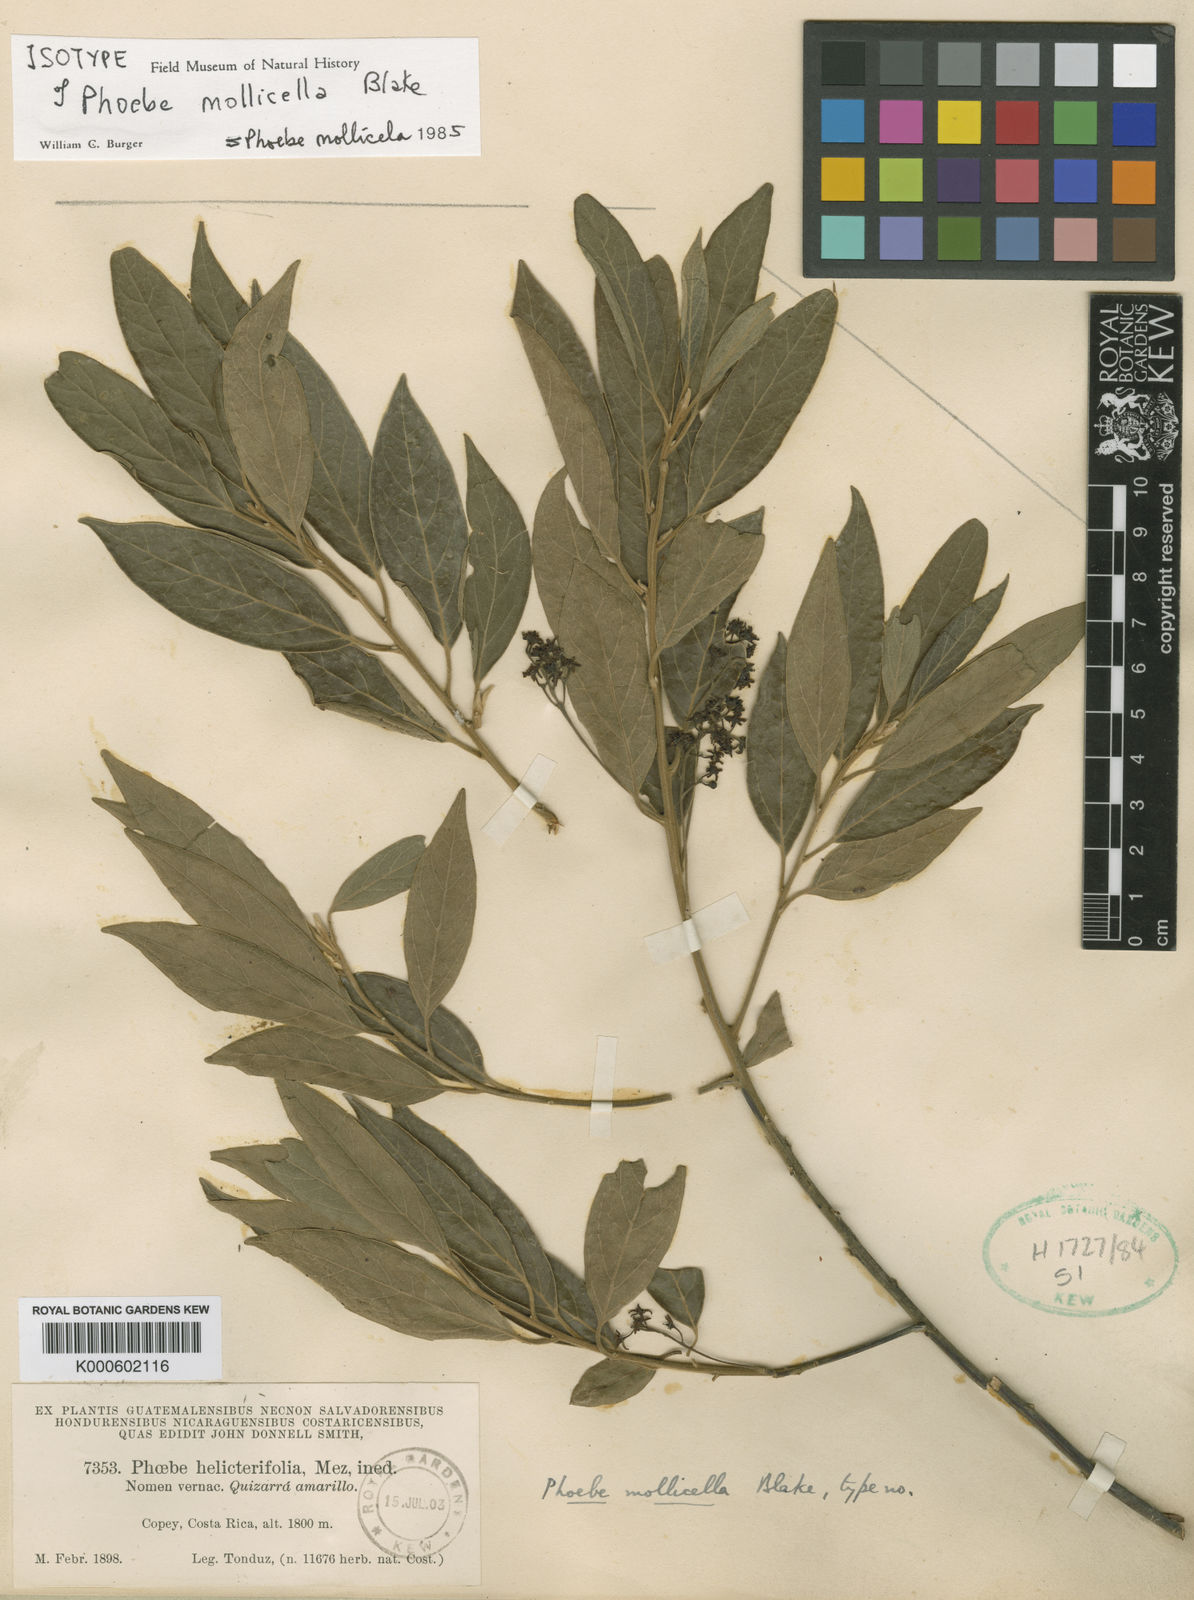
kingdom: Plantae
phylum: Tracheophyta
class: Magnoliopsida
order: Laurales
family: Lauraceae
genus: Ocotea
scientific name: Ocotea mollicella
